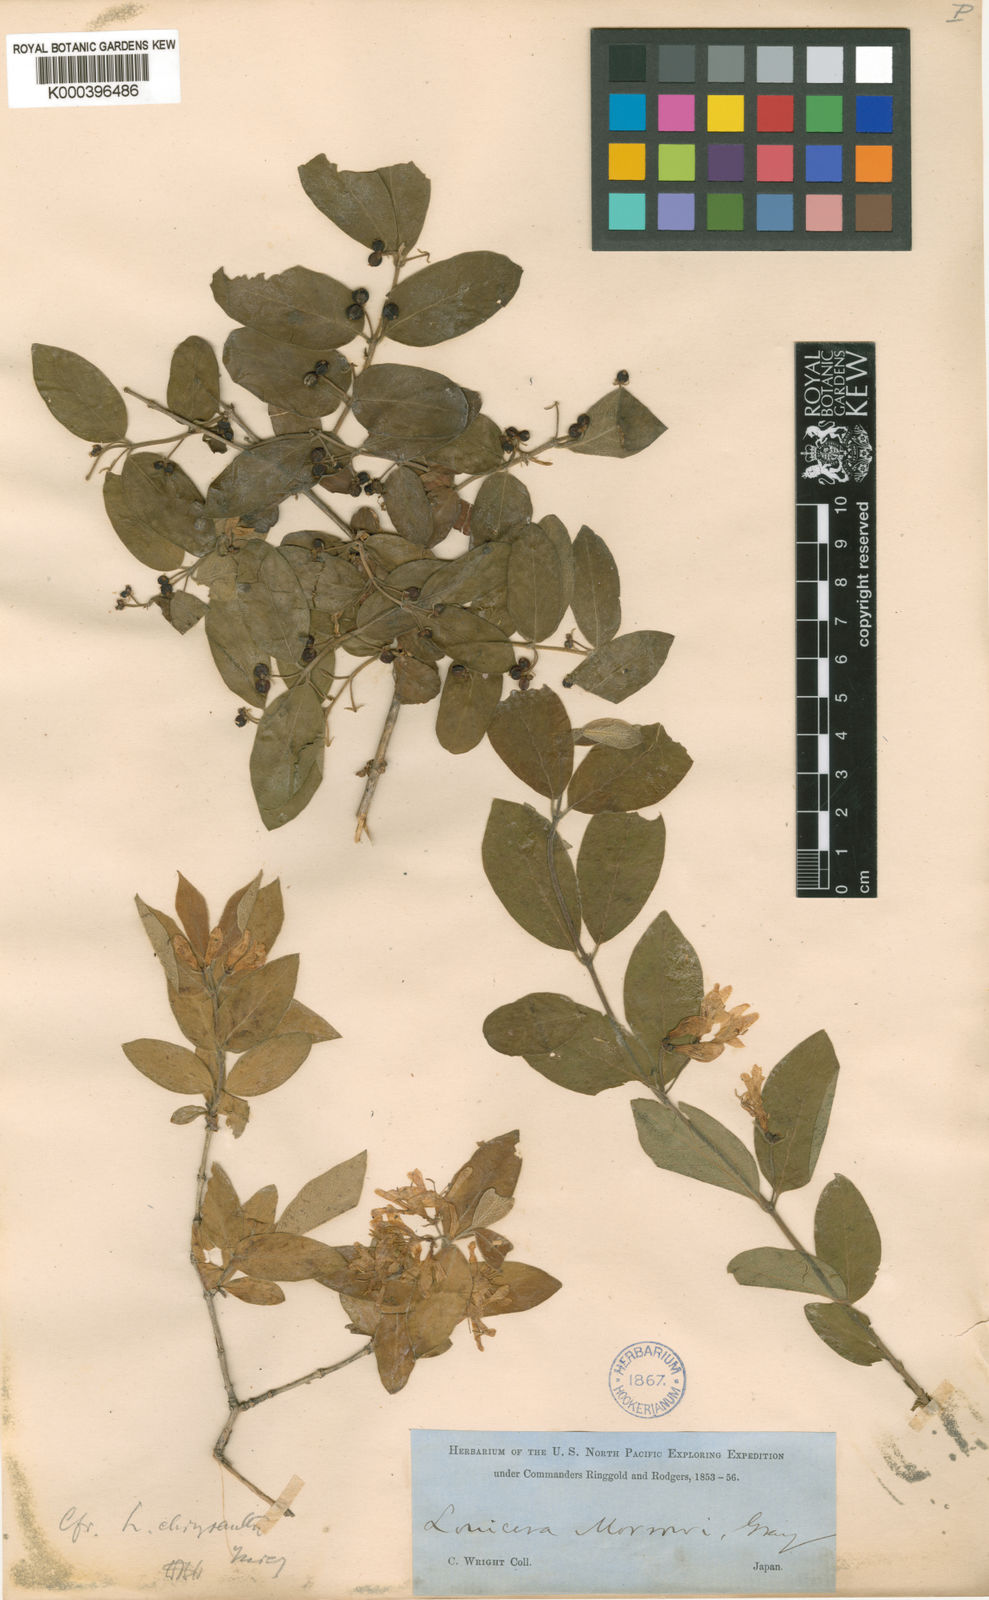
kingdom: Plantae
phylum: Tracheophyta
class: Magnoliopsida
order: Dipsacales
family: Caprifoliaceae
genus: Lonicera
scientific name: Lonicera morrowii
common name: Morrow's honeysuckle
